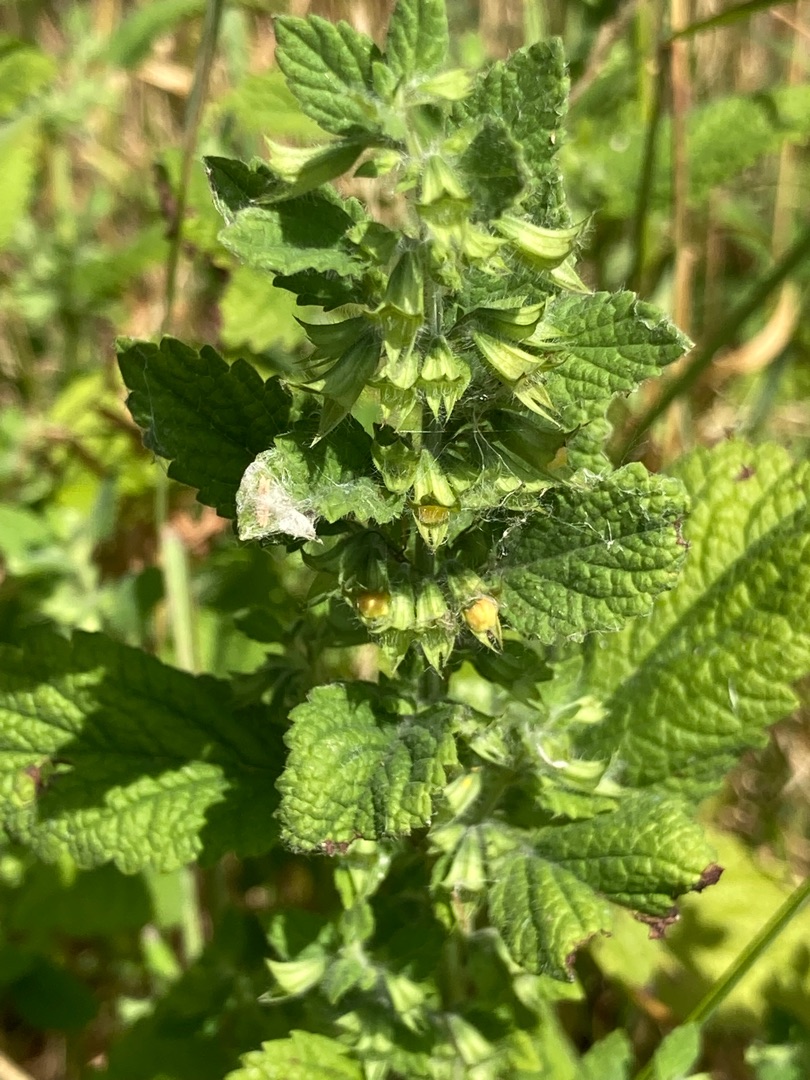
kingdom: Plantae
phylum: Tracheophyta
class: Magnoliopsida
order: Lamiales
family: Lamiaceae
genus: Melissa
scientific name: Melissa officinalis
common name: Citronmelisse
